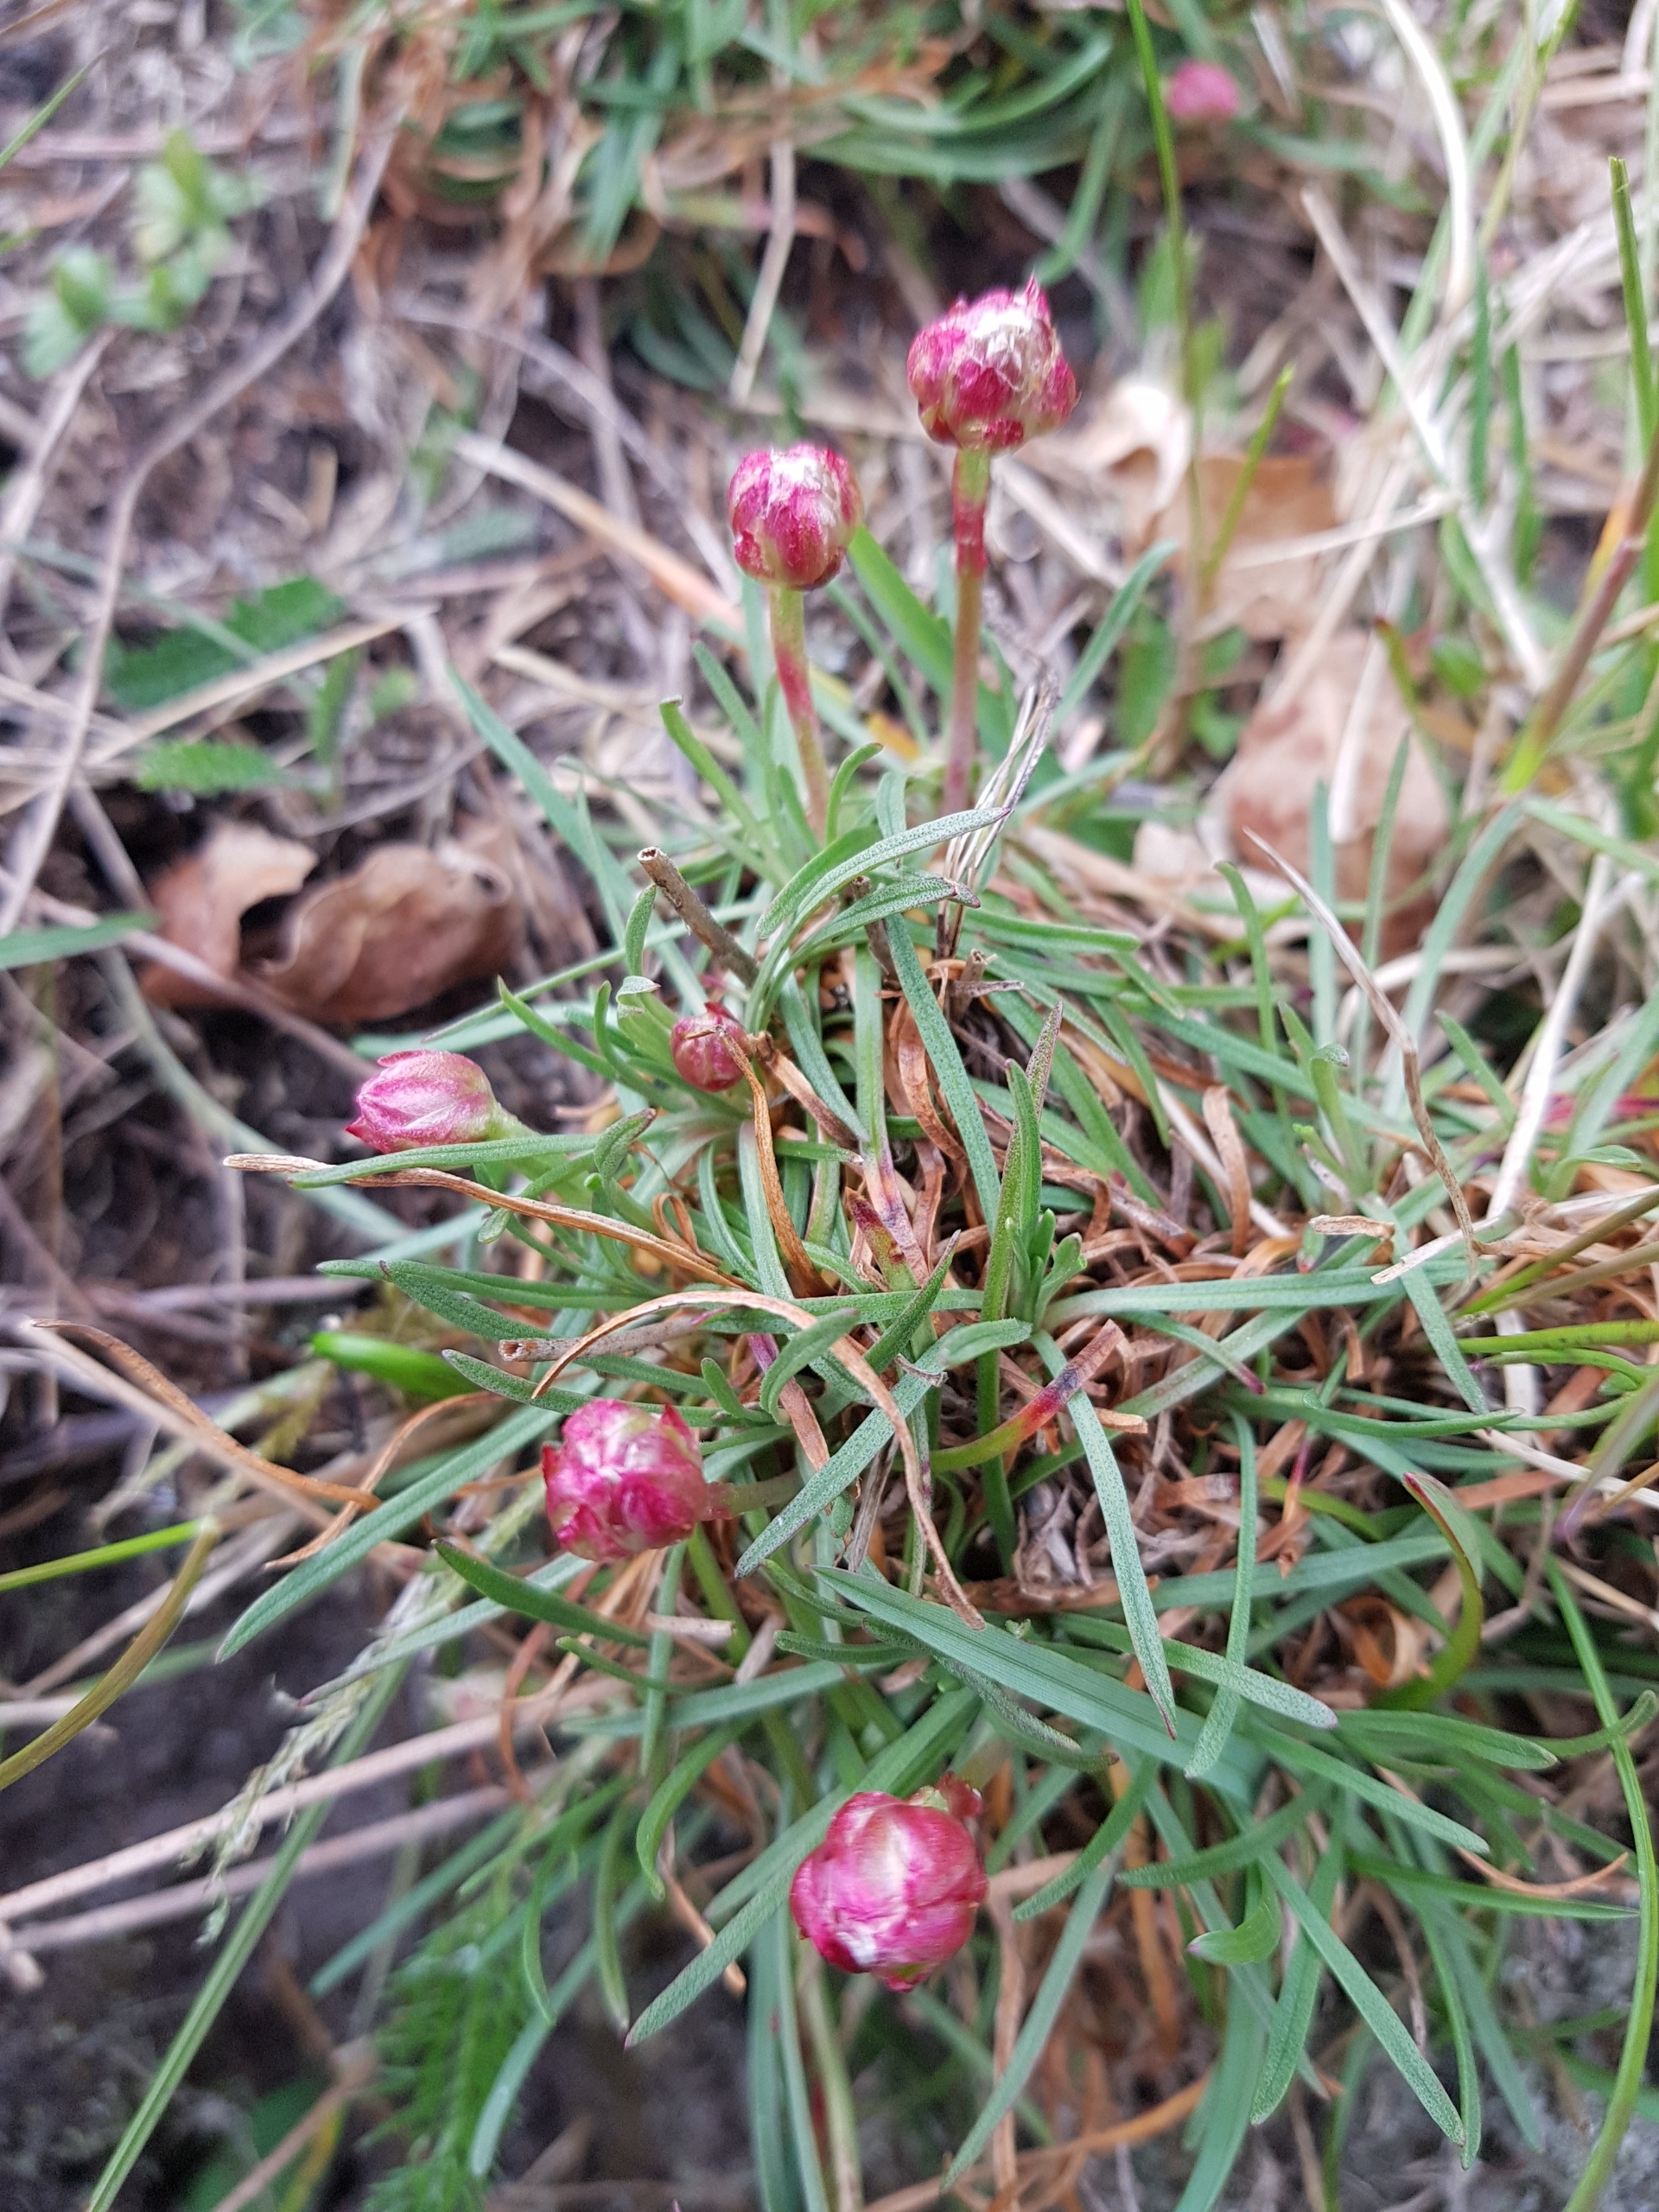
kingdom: Plantae
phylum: Tracheophyta
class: Magnoliopsida
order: Caryophyllales
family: Plumbaginaceae
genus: Armeria
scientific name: Armeria maritima
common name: Engelskgræs
